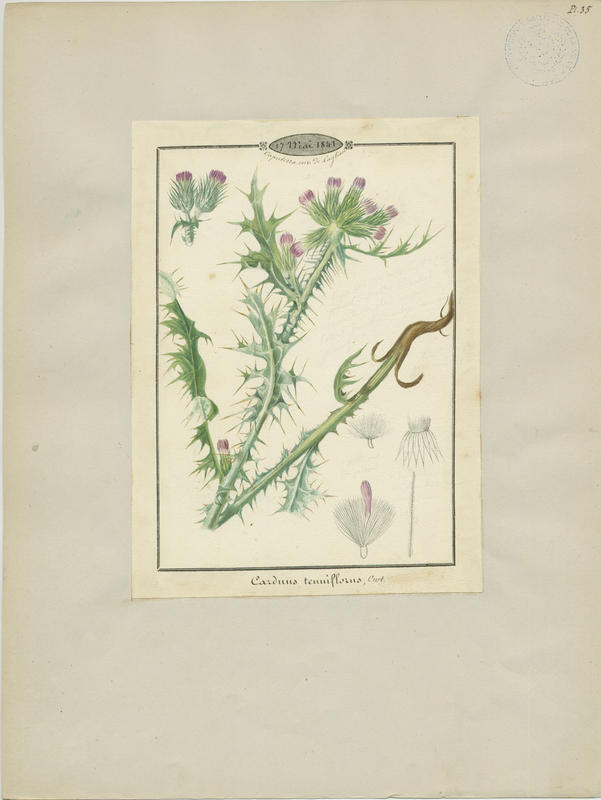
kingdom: Plantae
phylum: Tracheophyta
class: Magnoliopsida
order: Asterales
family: Asteraceae
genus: Carduus
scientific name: Carduus tenuiflorus
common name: Slender thistle
